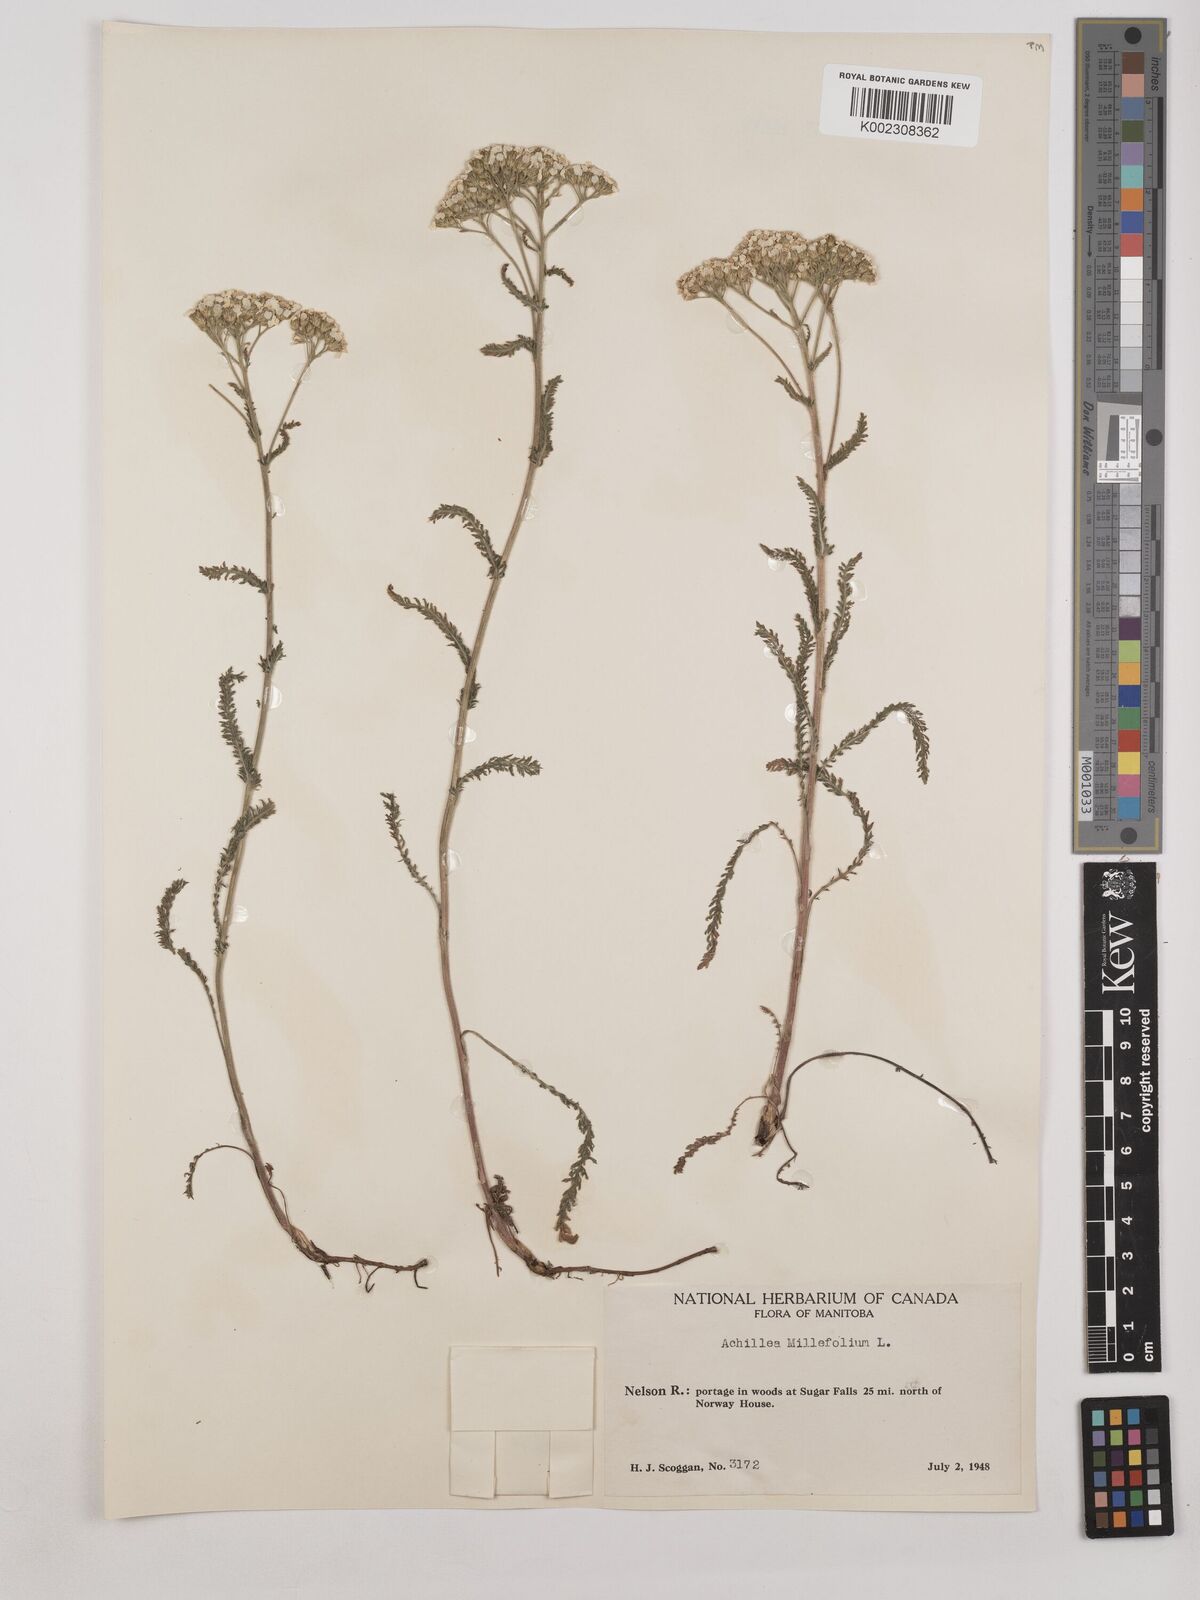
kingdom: Plantae
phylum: Tracheophyta
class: Magnoliopsida
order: Asterales
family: Asteraceae
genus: Achillea
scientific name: Achillea millefolium
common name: Yarrow
